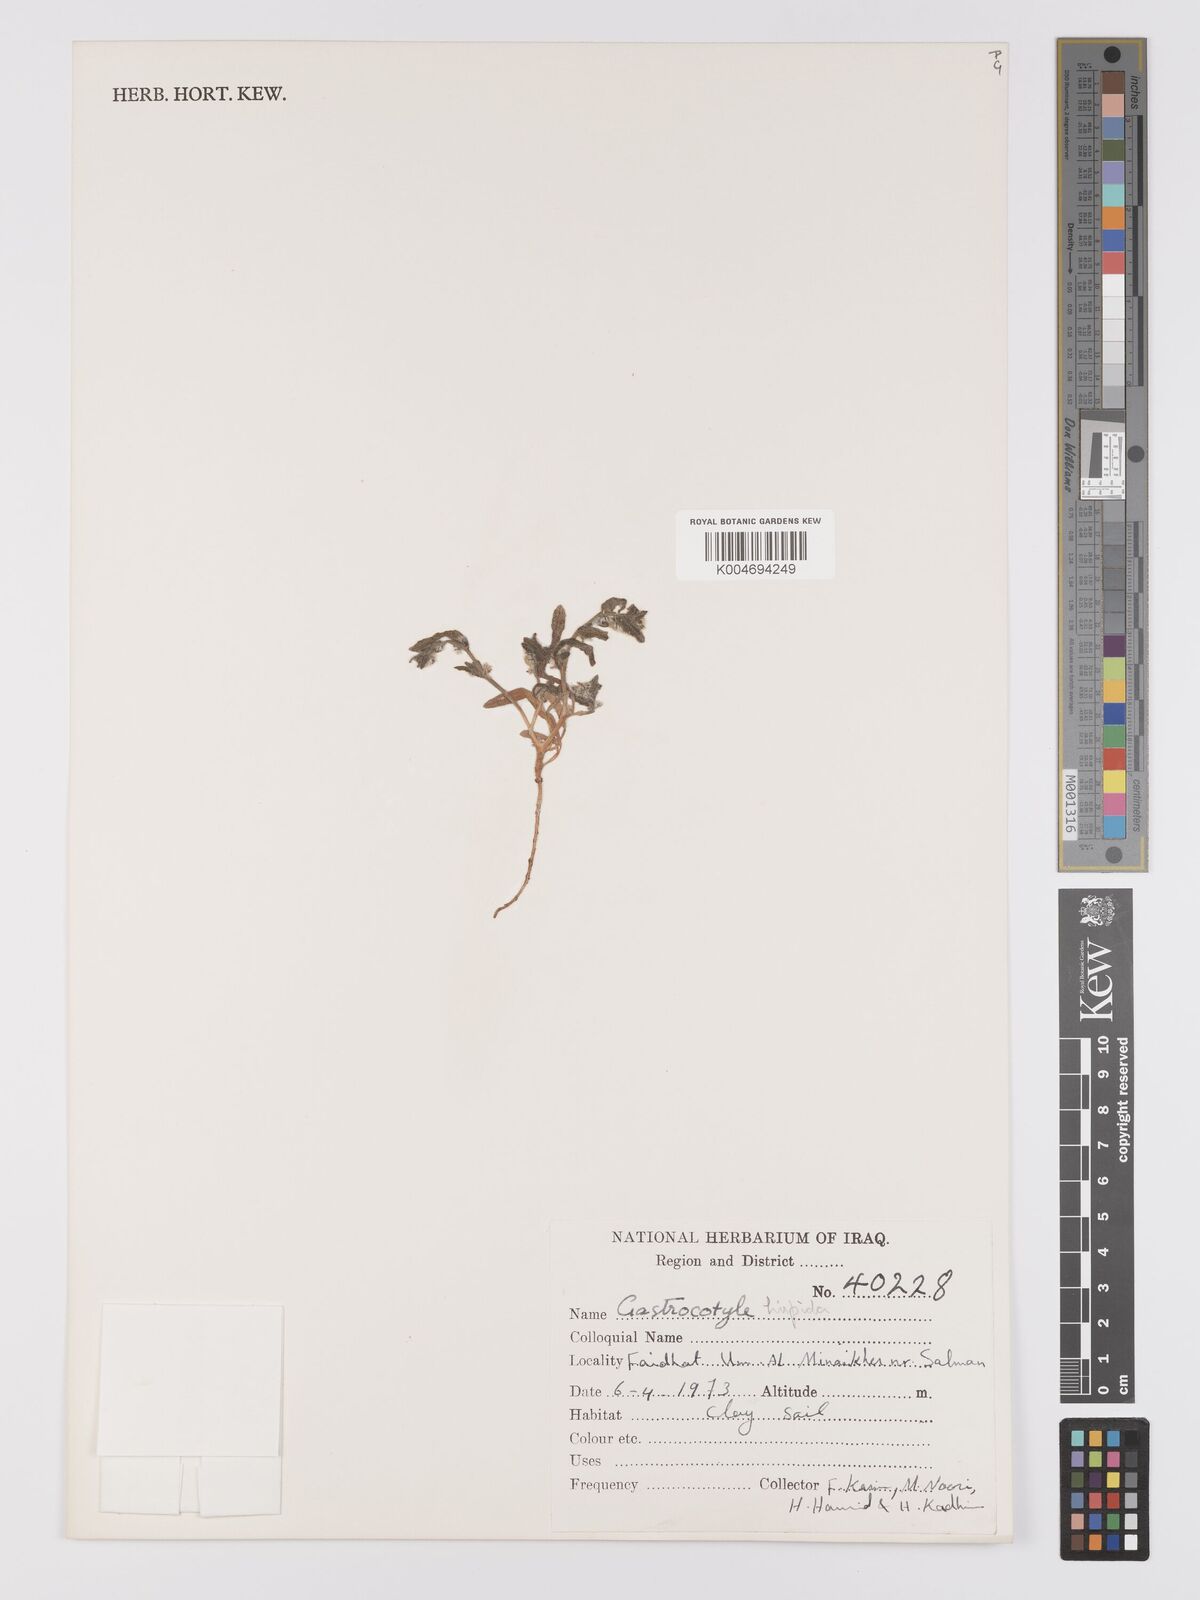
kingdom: Plantae
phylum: Tracheophyta
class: Magnoliopsida
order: Boraginales
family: Boraginaceae
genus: Gastrocotyle
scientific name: Gastrocotyle hispida
